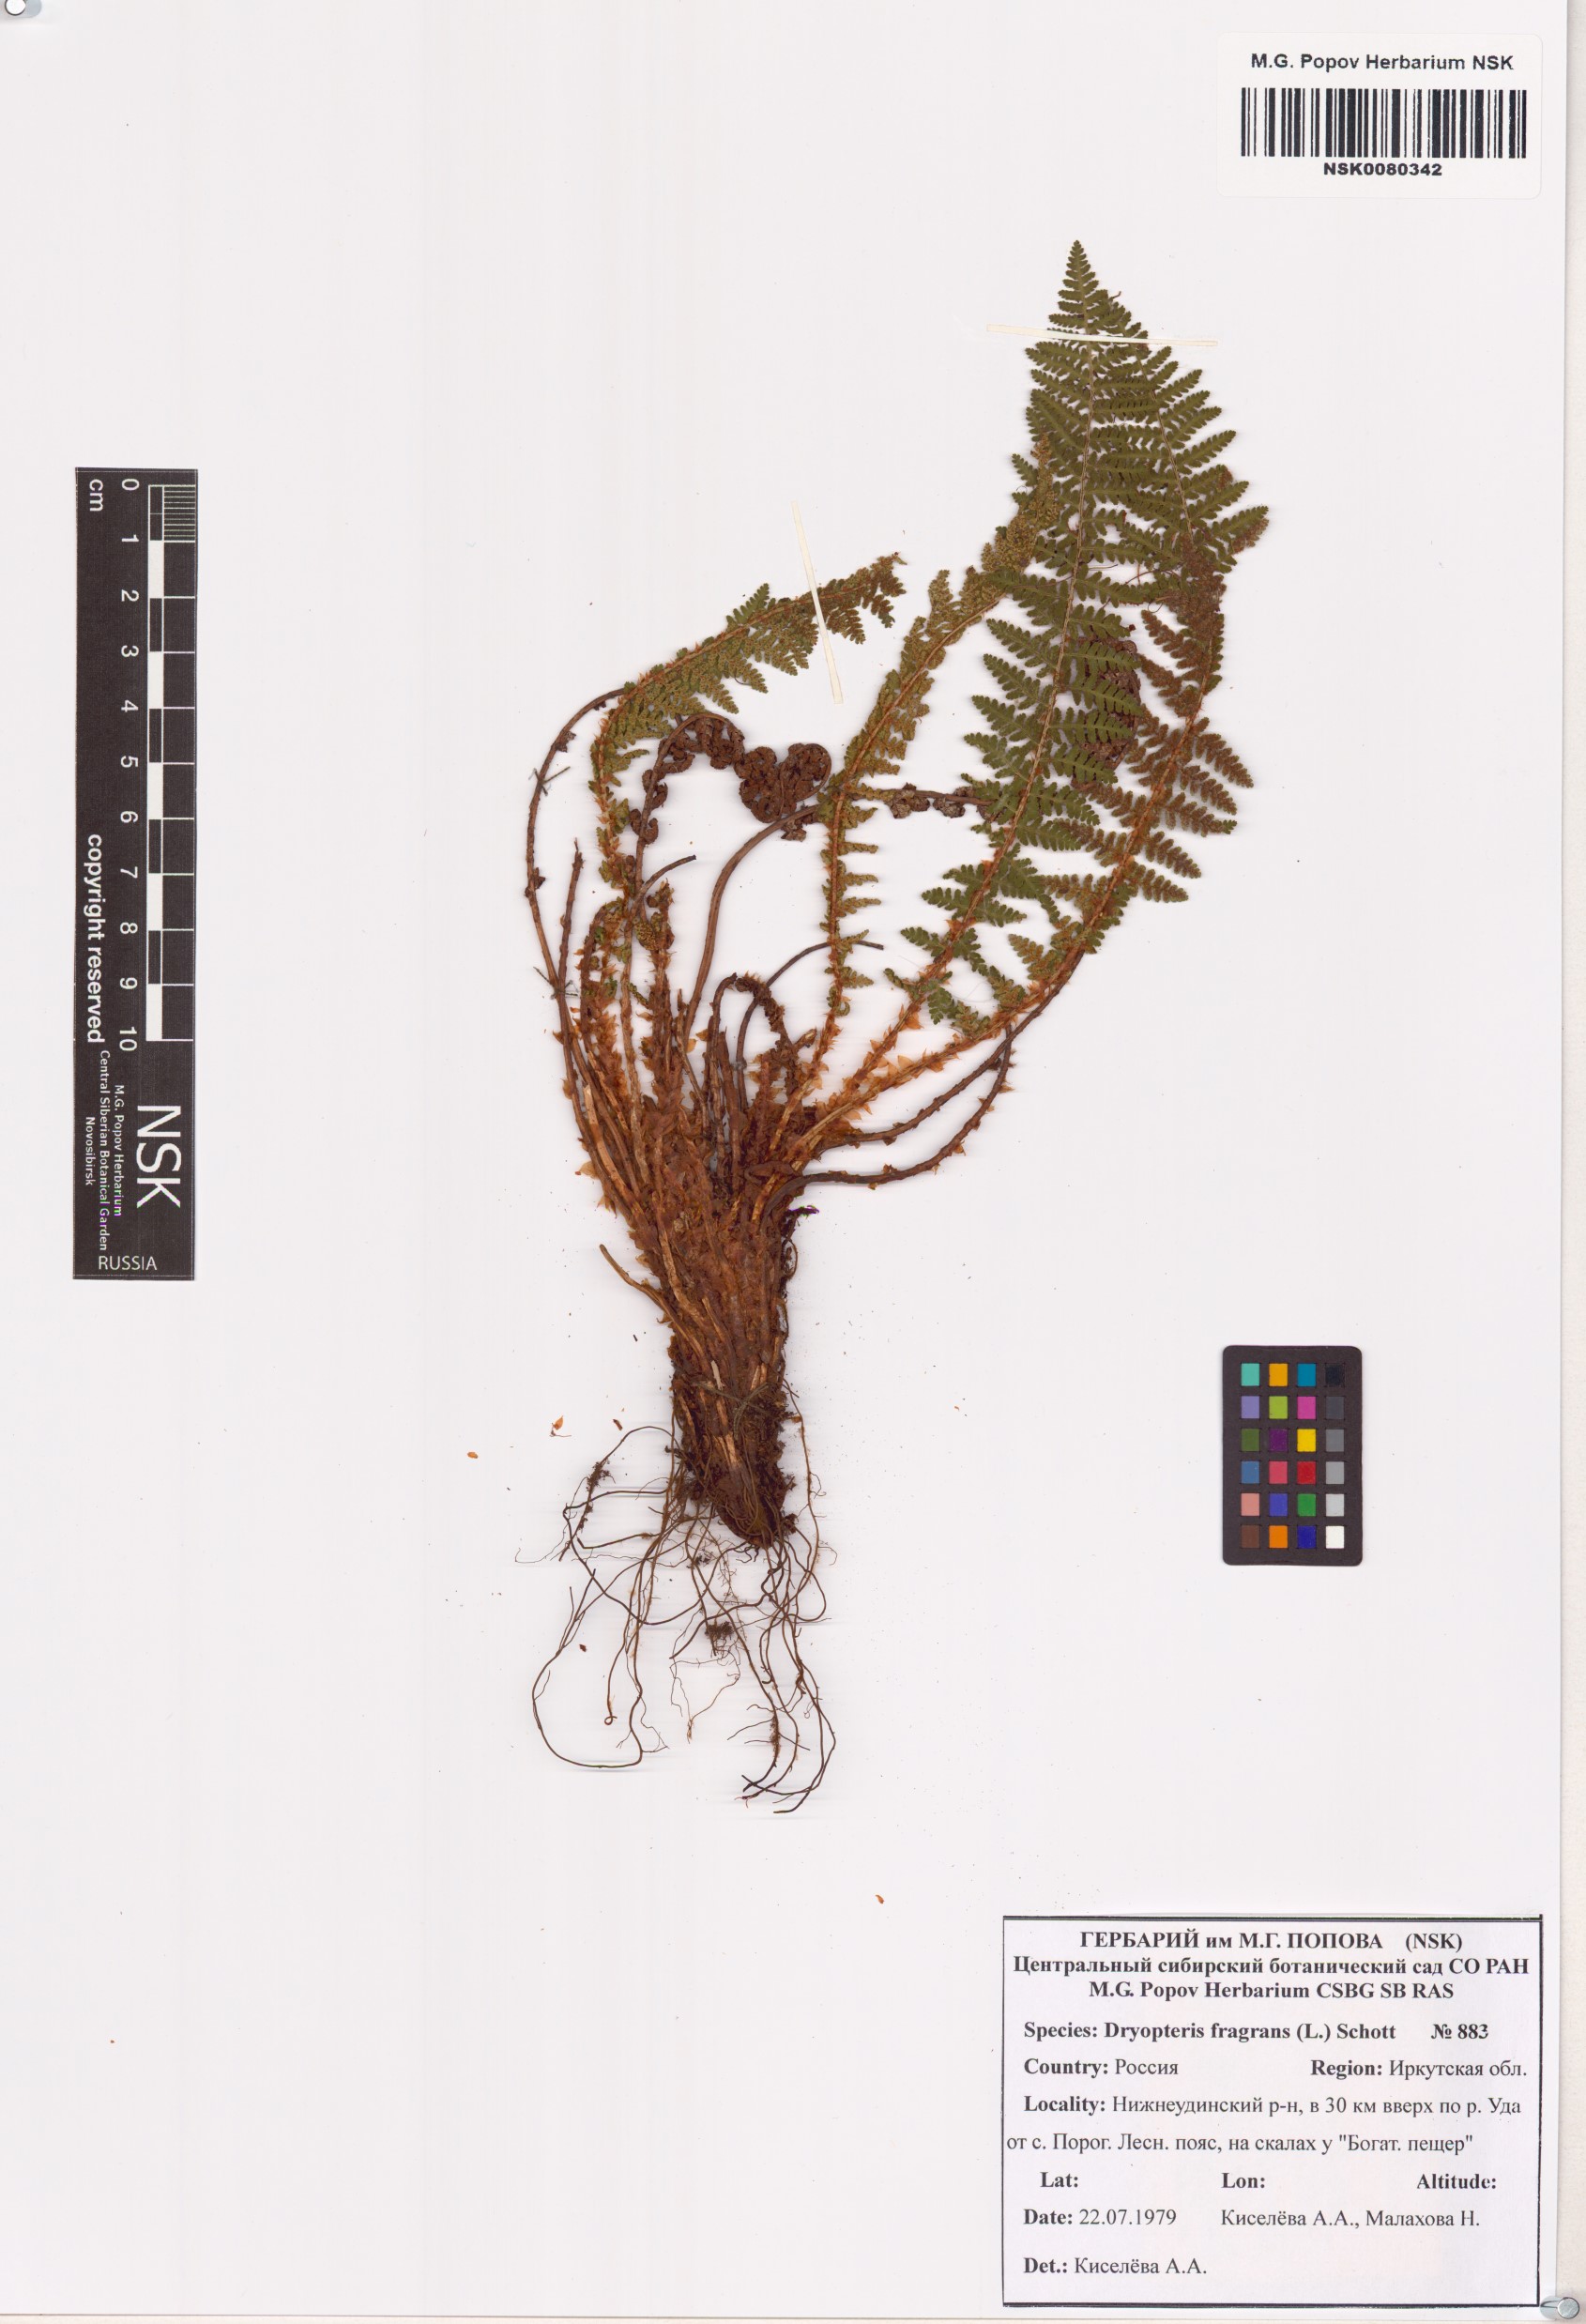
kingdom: Plantae
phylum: Tracheophyta
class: Polypodiopsida
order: Polypodiales
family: Dryopteridaceae
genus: Dryopteris
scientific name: Dryopteris fragrans
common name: Fragrant wood fern
